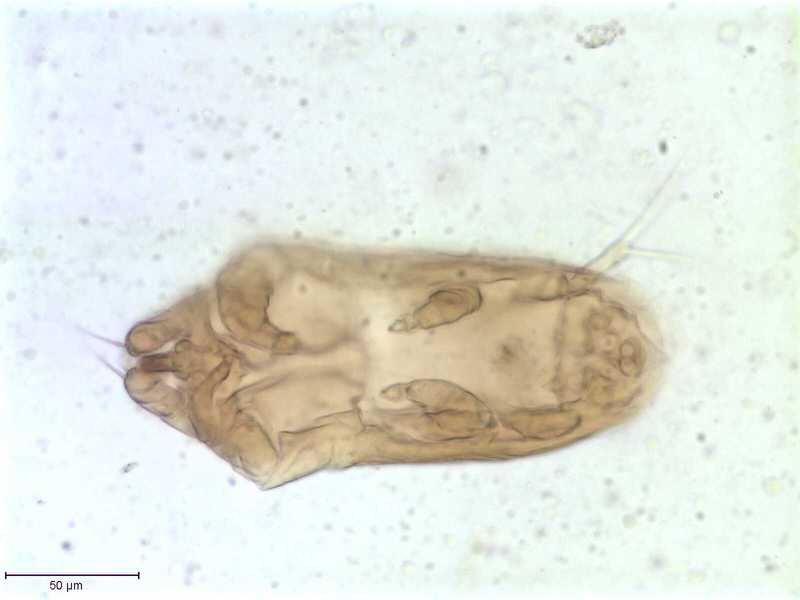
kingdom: Animalia
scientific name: Animalia
